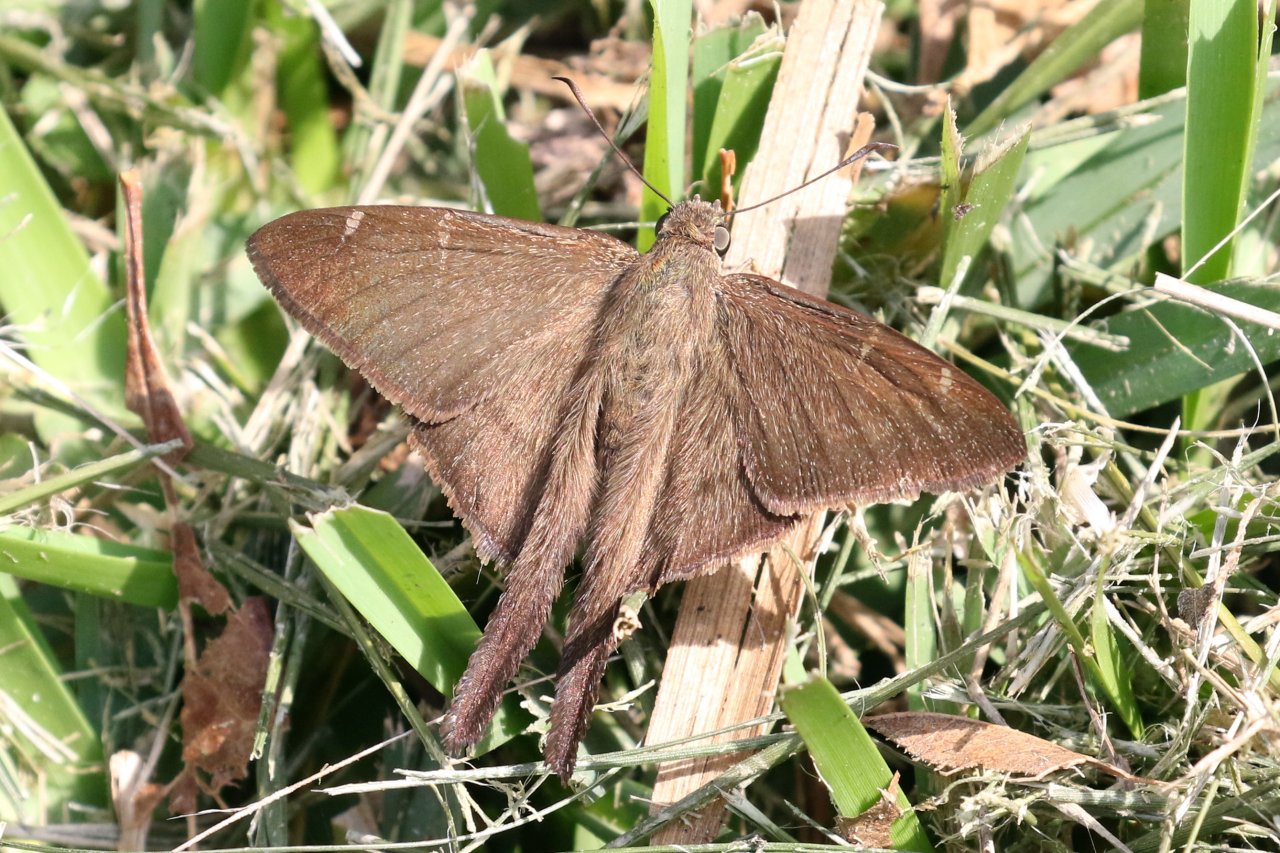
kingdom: Animalia
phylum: Arthropoda
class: Insecta
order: Lepidoptera
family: Hesperiidae
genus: Urbanus
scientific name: Urbanus procne
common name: Brown Longtail
